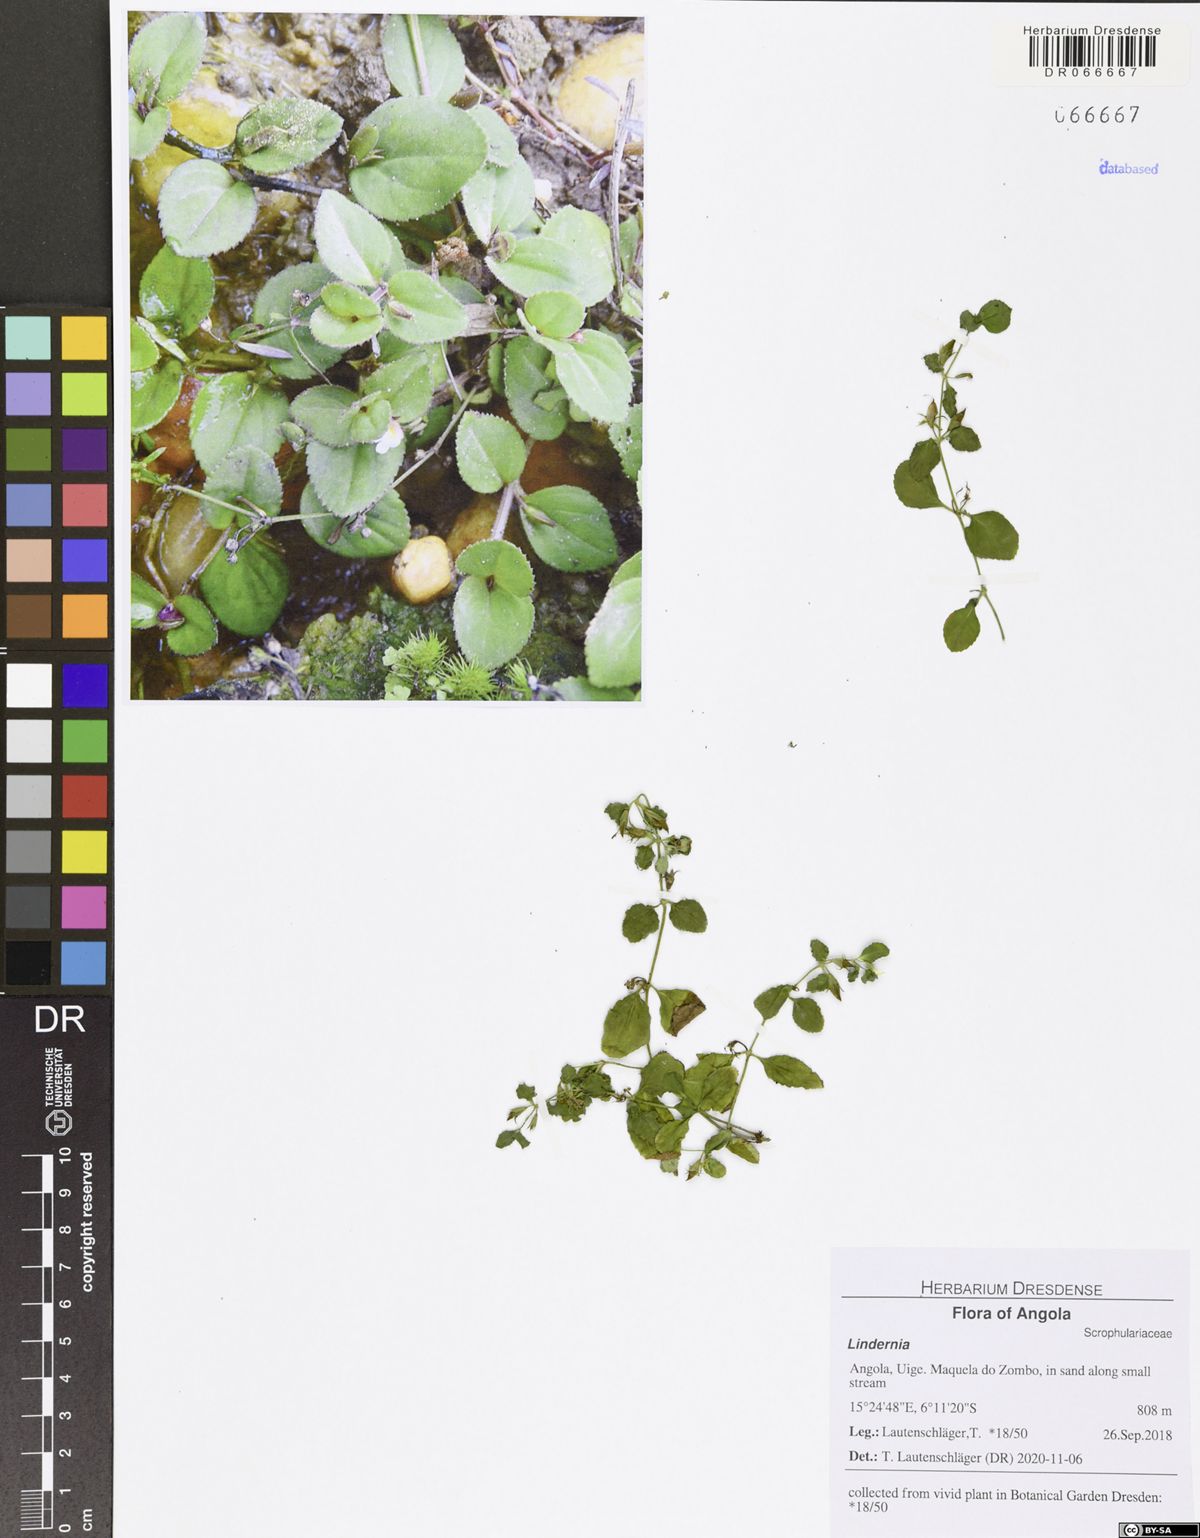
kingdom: Plantae
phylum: Tracheophyta
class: Magnoliopsida
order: Lamiales
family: Linderniaceae
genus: Vandellia
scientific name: Vandellia diffusa
